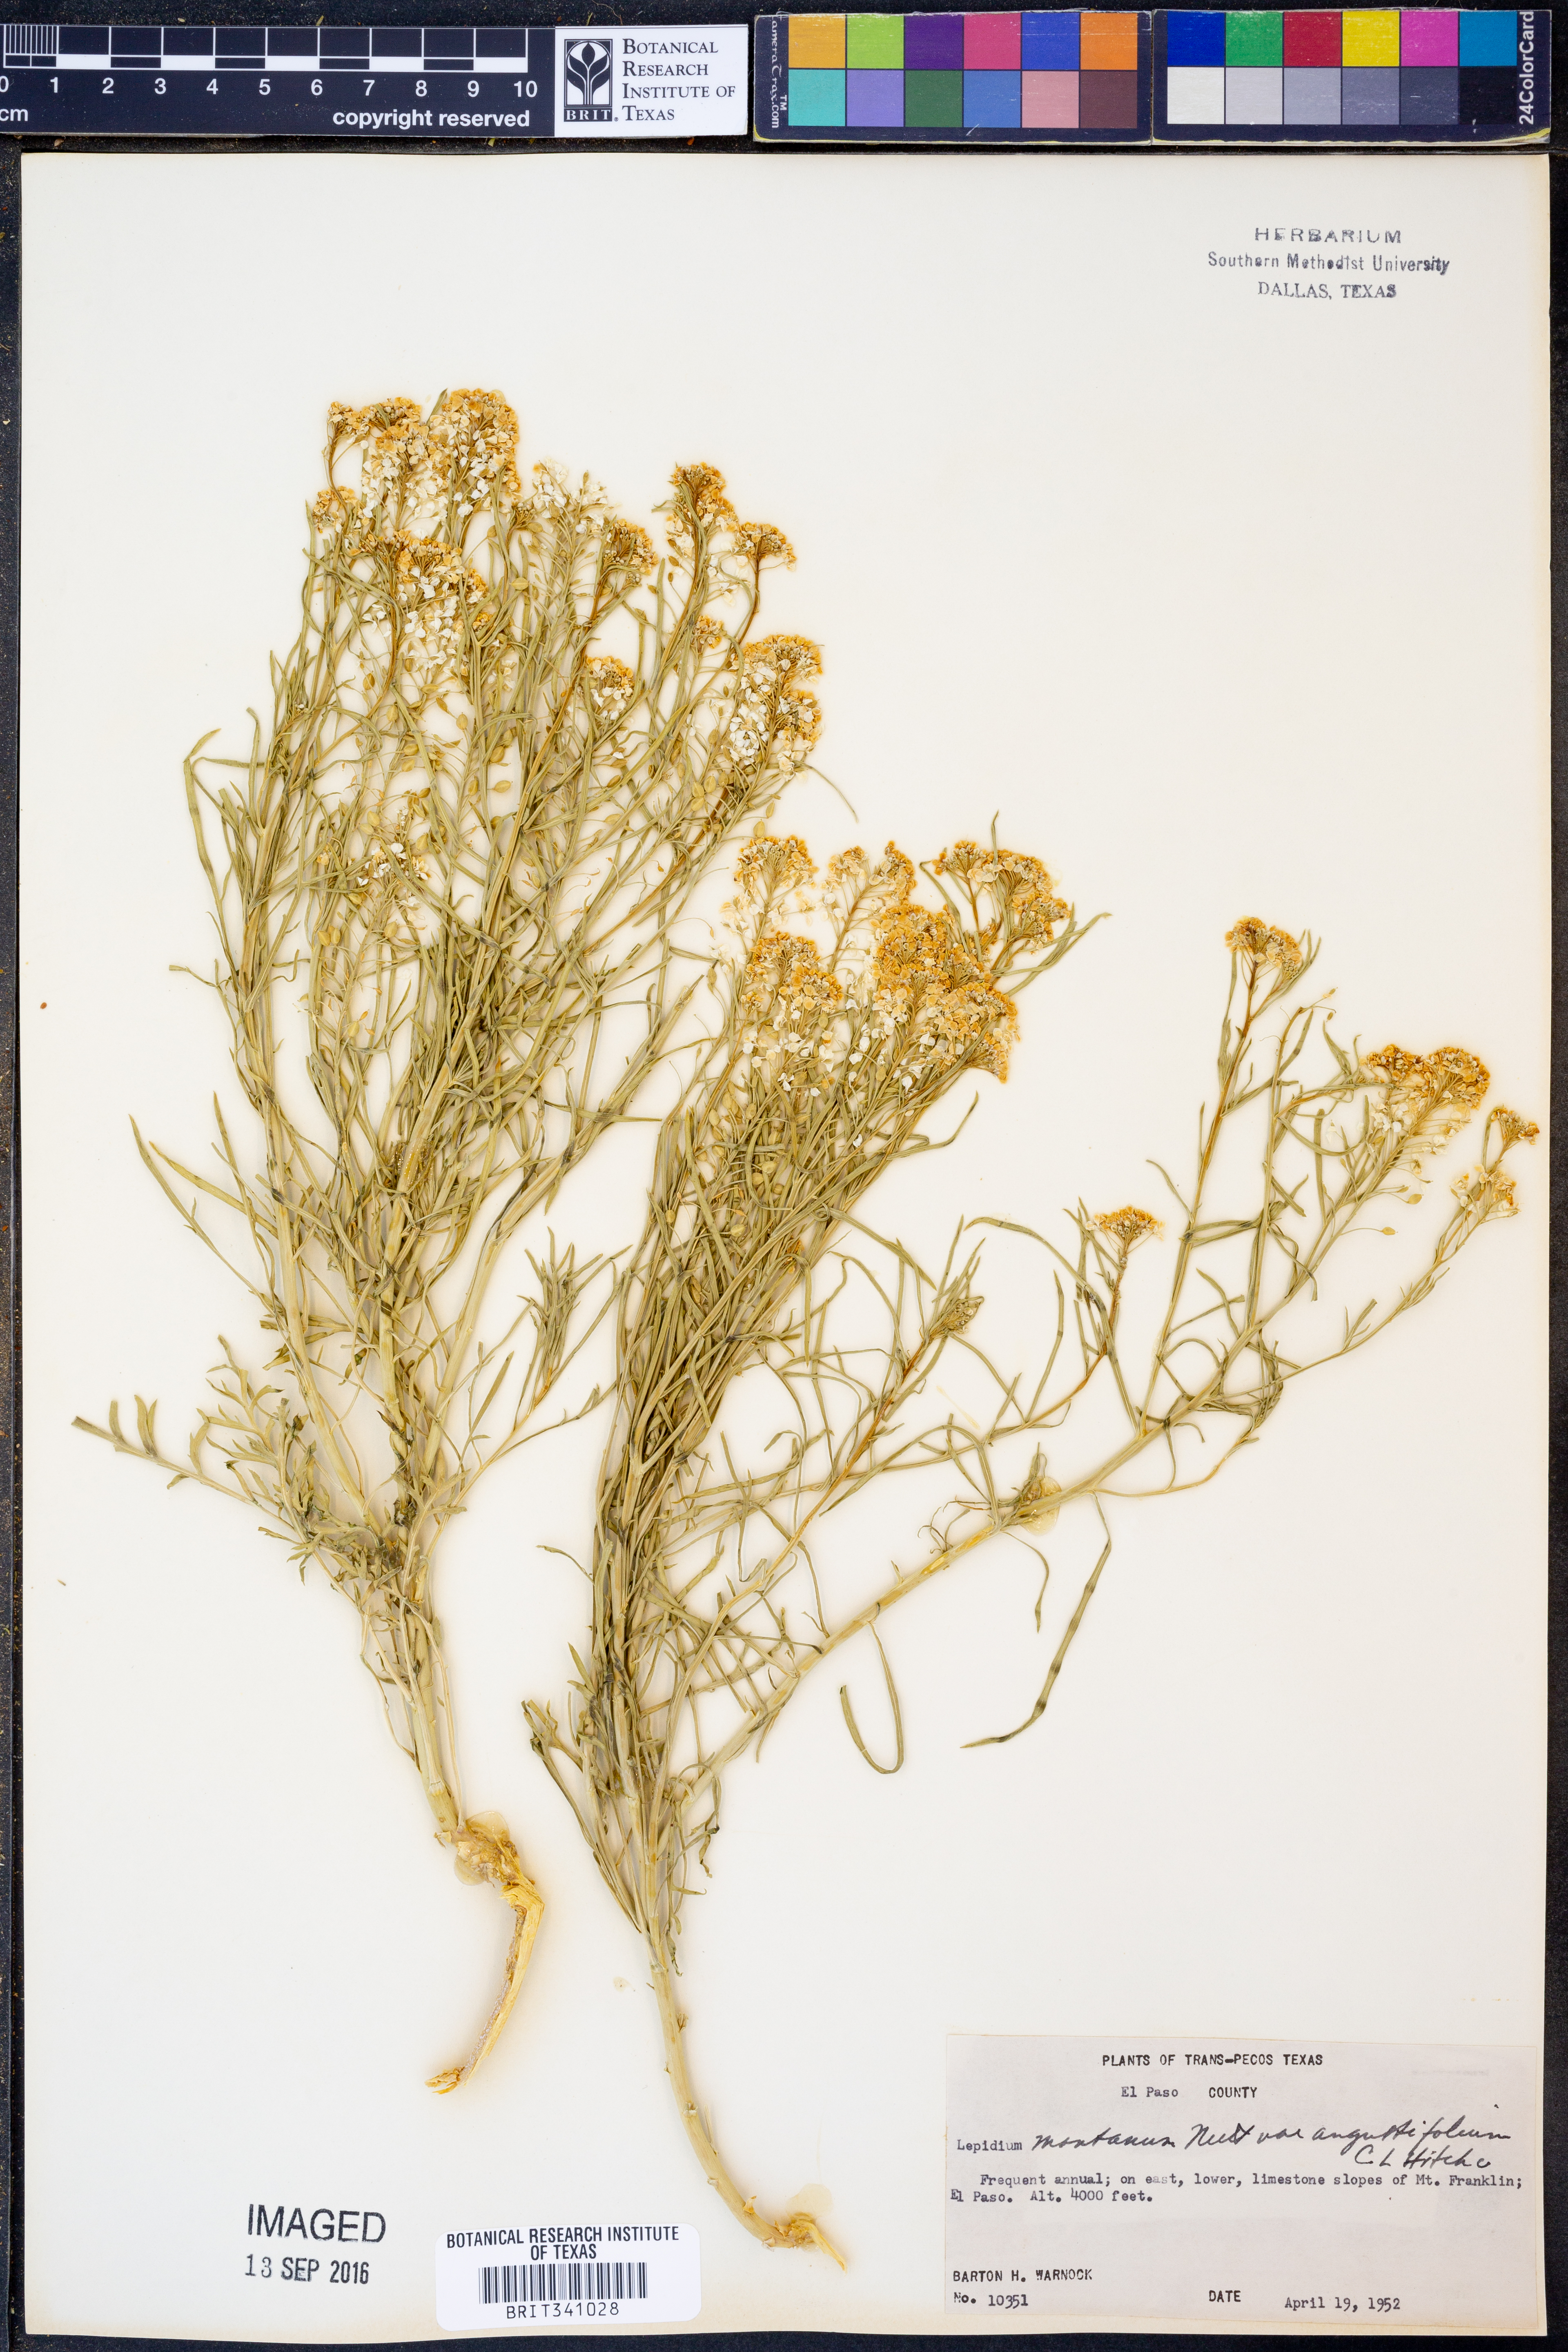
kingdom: Plantae
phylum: Tracheophyta
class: Magnoliopsida
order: Brassicales
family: Brassicaceae
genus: Lepidium
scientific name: Lepidium alyssoides
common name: Mesa pepperweed
